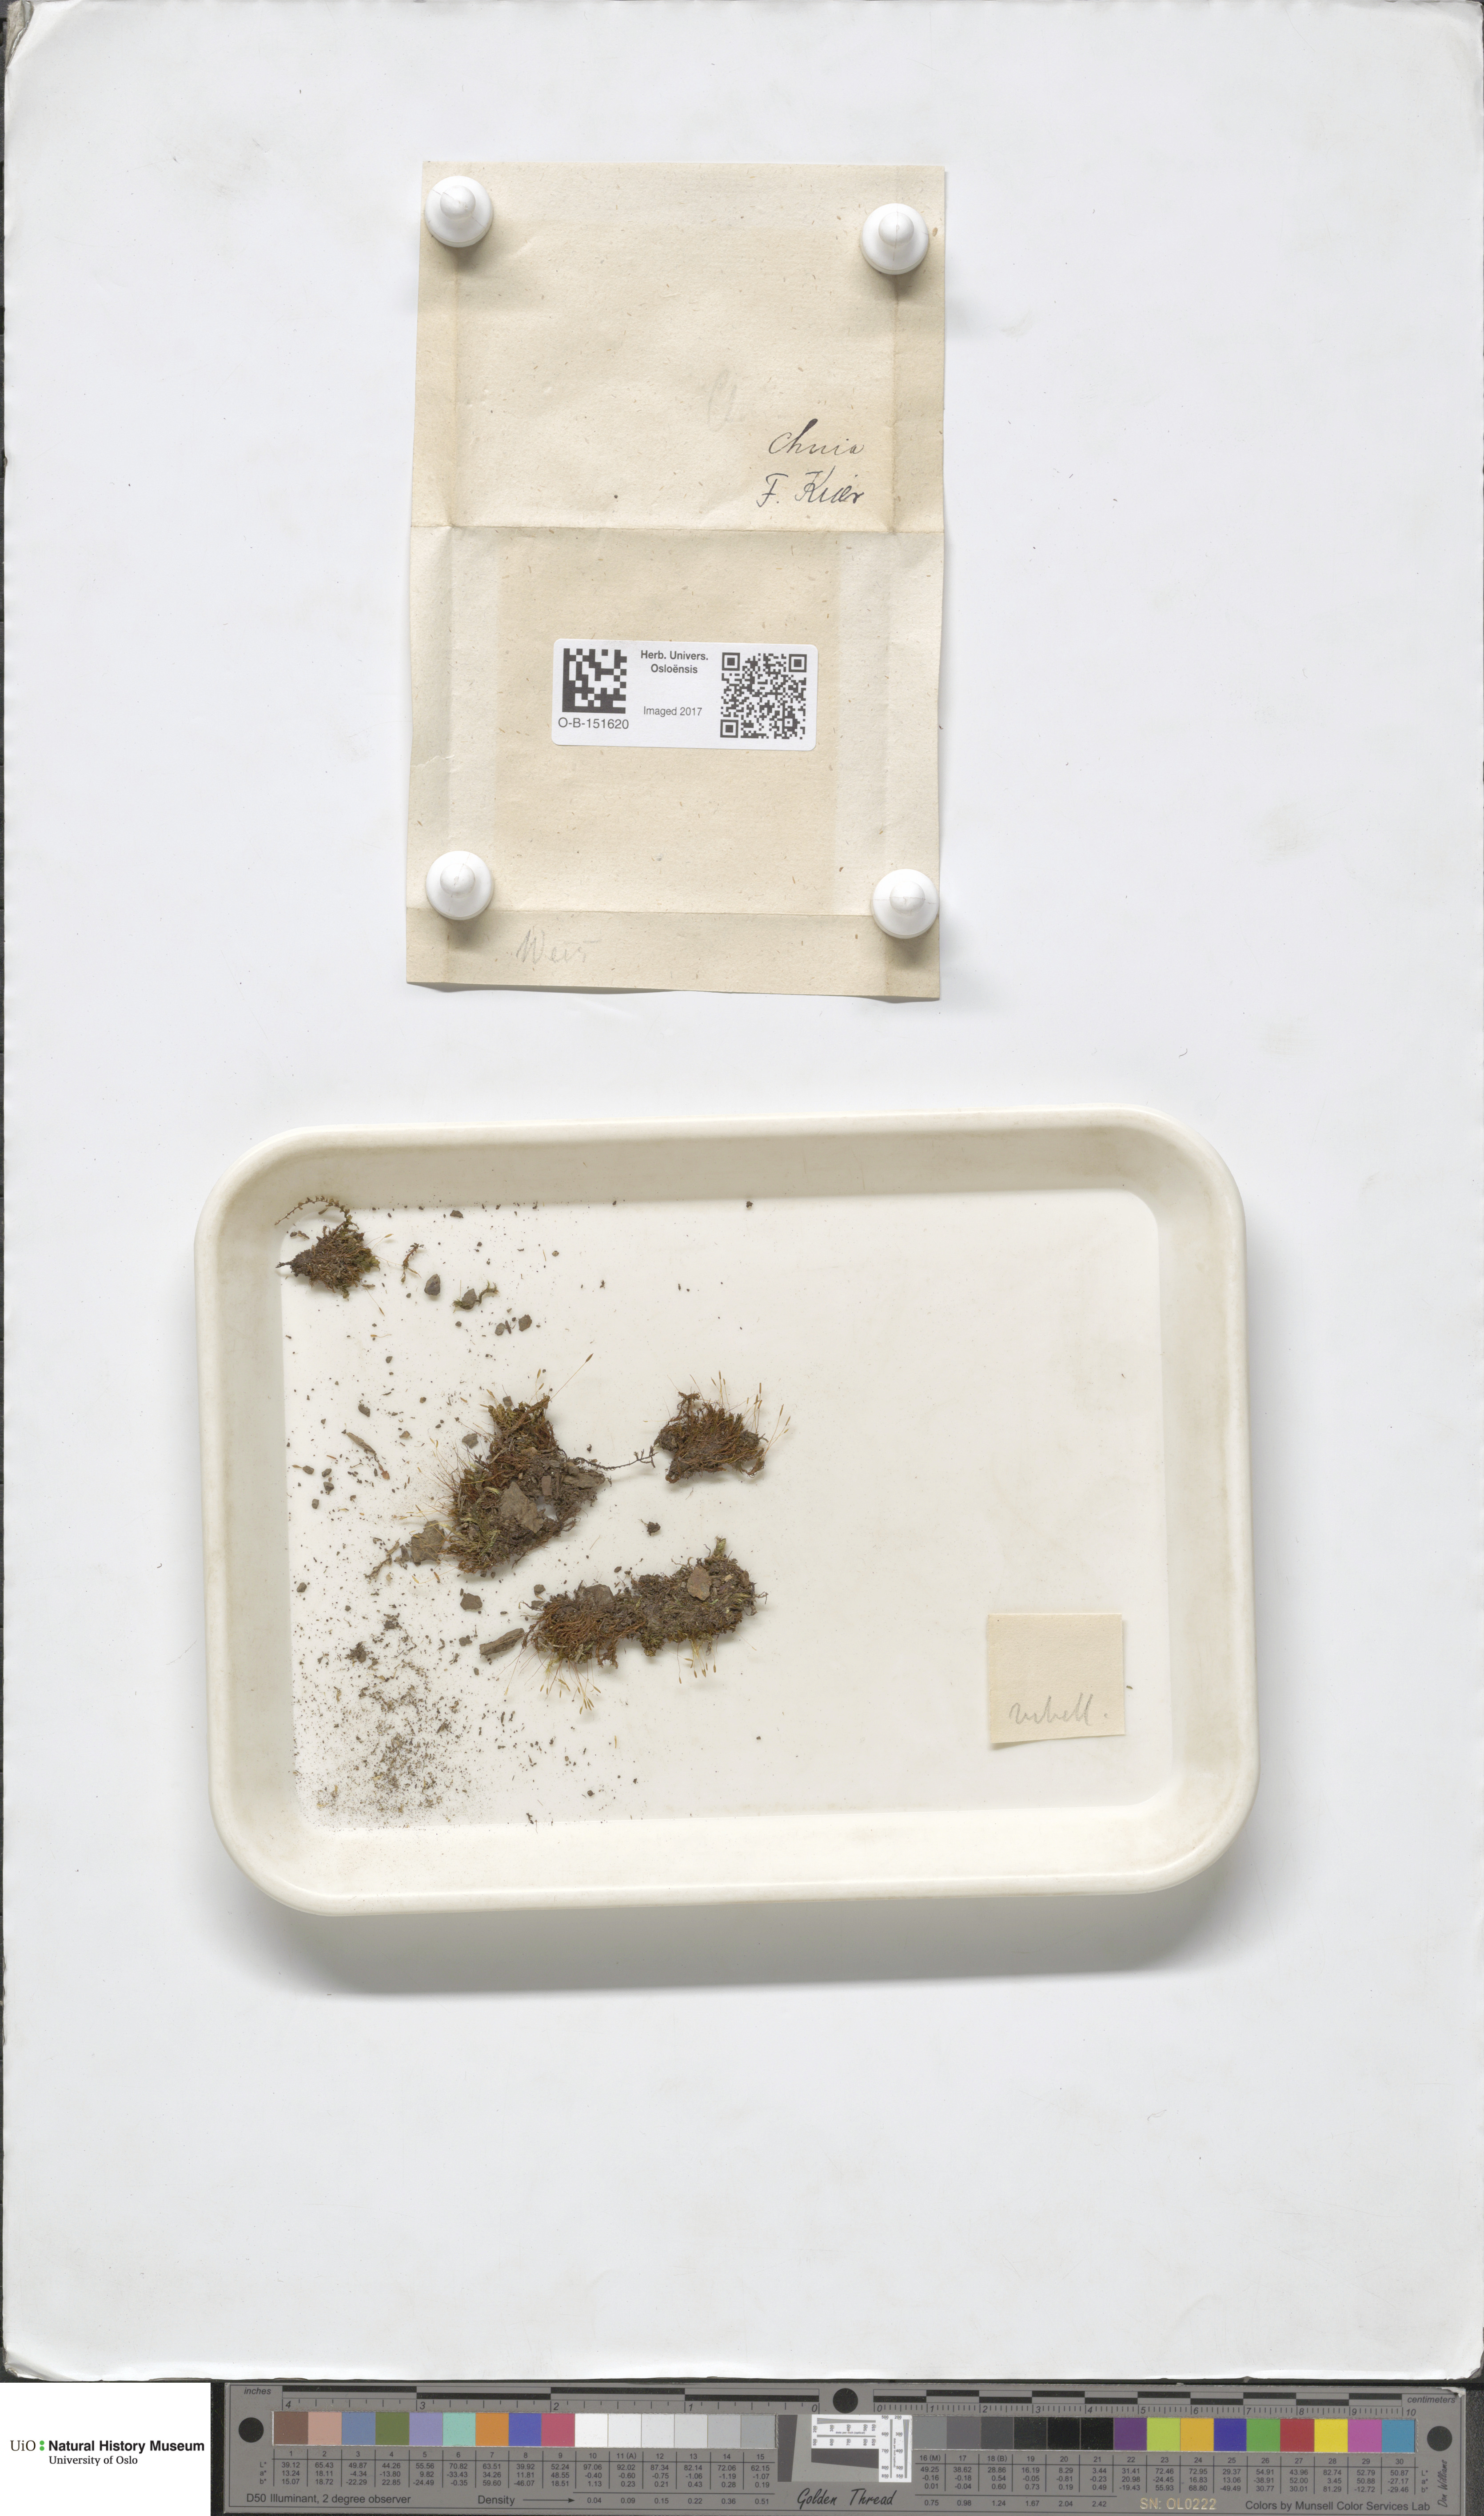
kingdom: Plantae
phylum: Bryophyta
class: Bryopsida
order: Pottiales
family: Pottiaceae
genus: Bryoerythrophyllum
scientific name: Bryoerythrophyllum recurvirostrum
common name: Red beard moss
